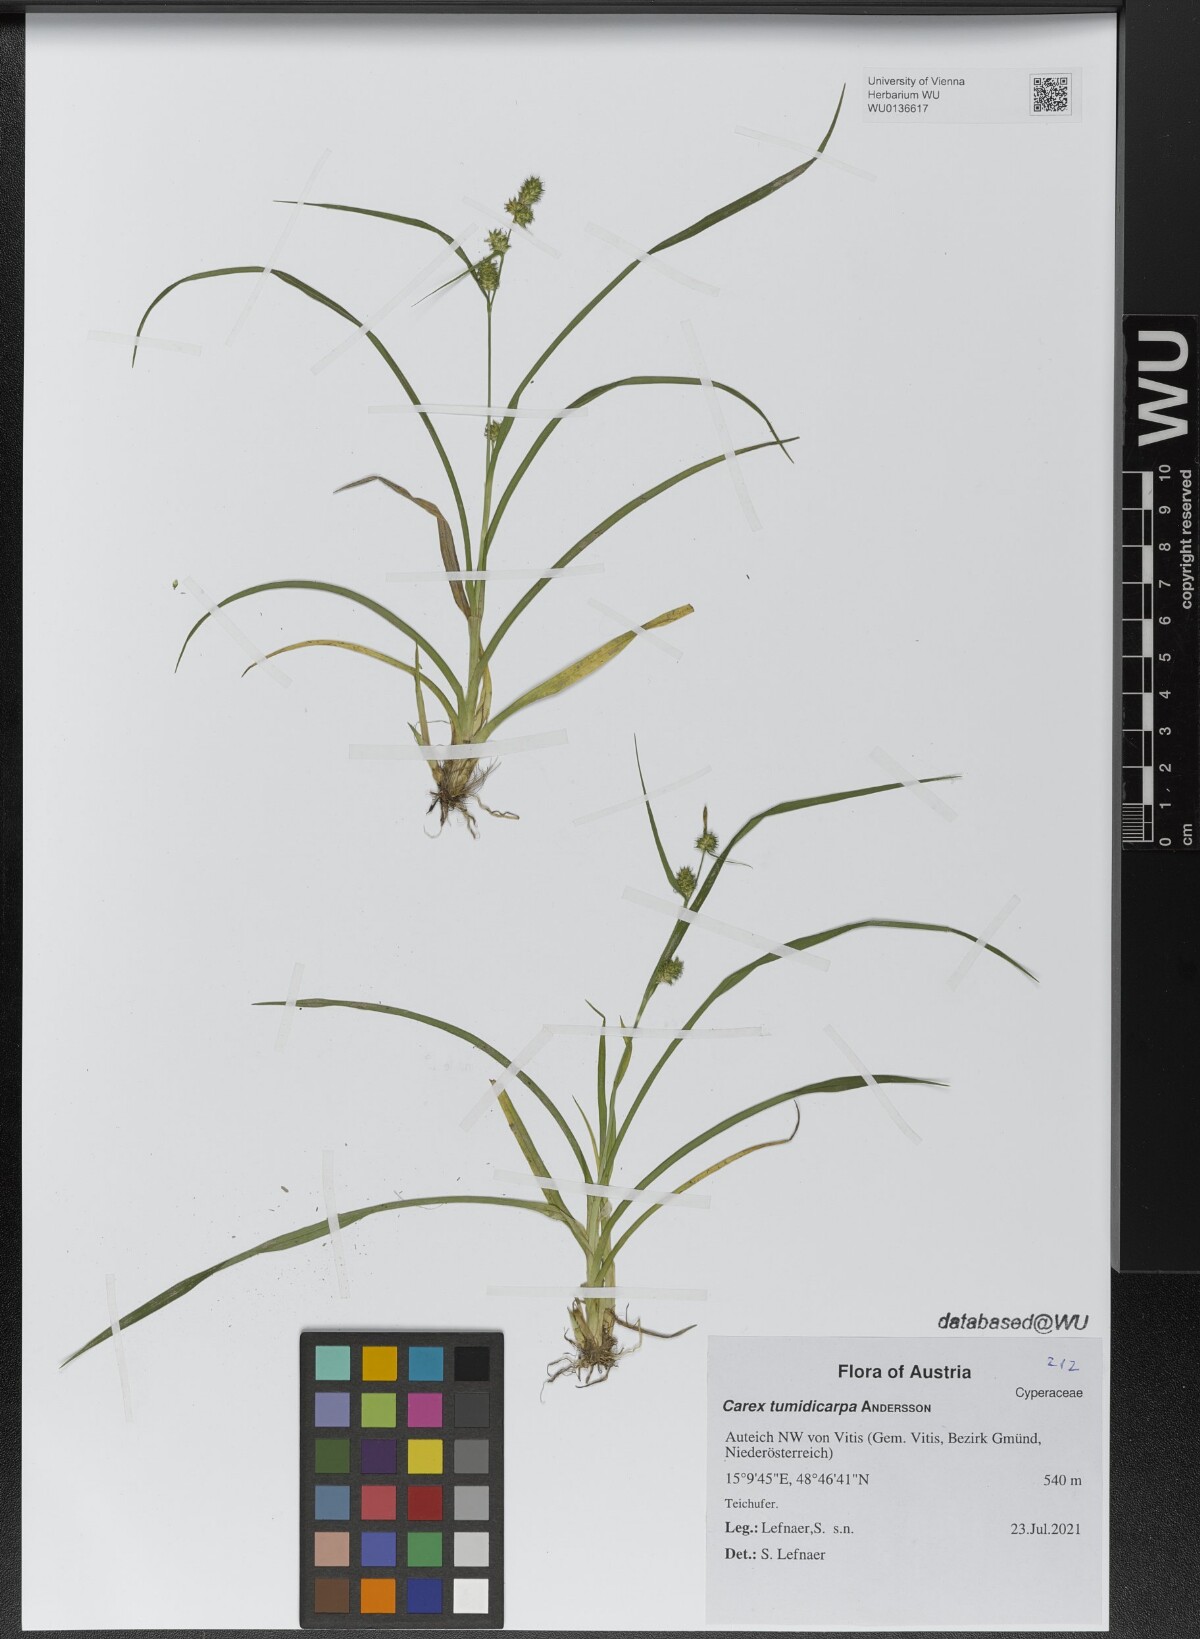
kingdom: Plantae
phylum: Tracheophyta
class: Liliopsida
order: Poales
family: Cyperaceae
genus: Carex
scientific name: Carex demissa
